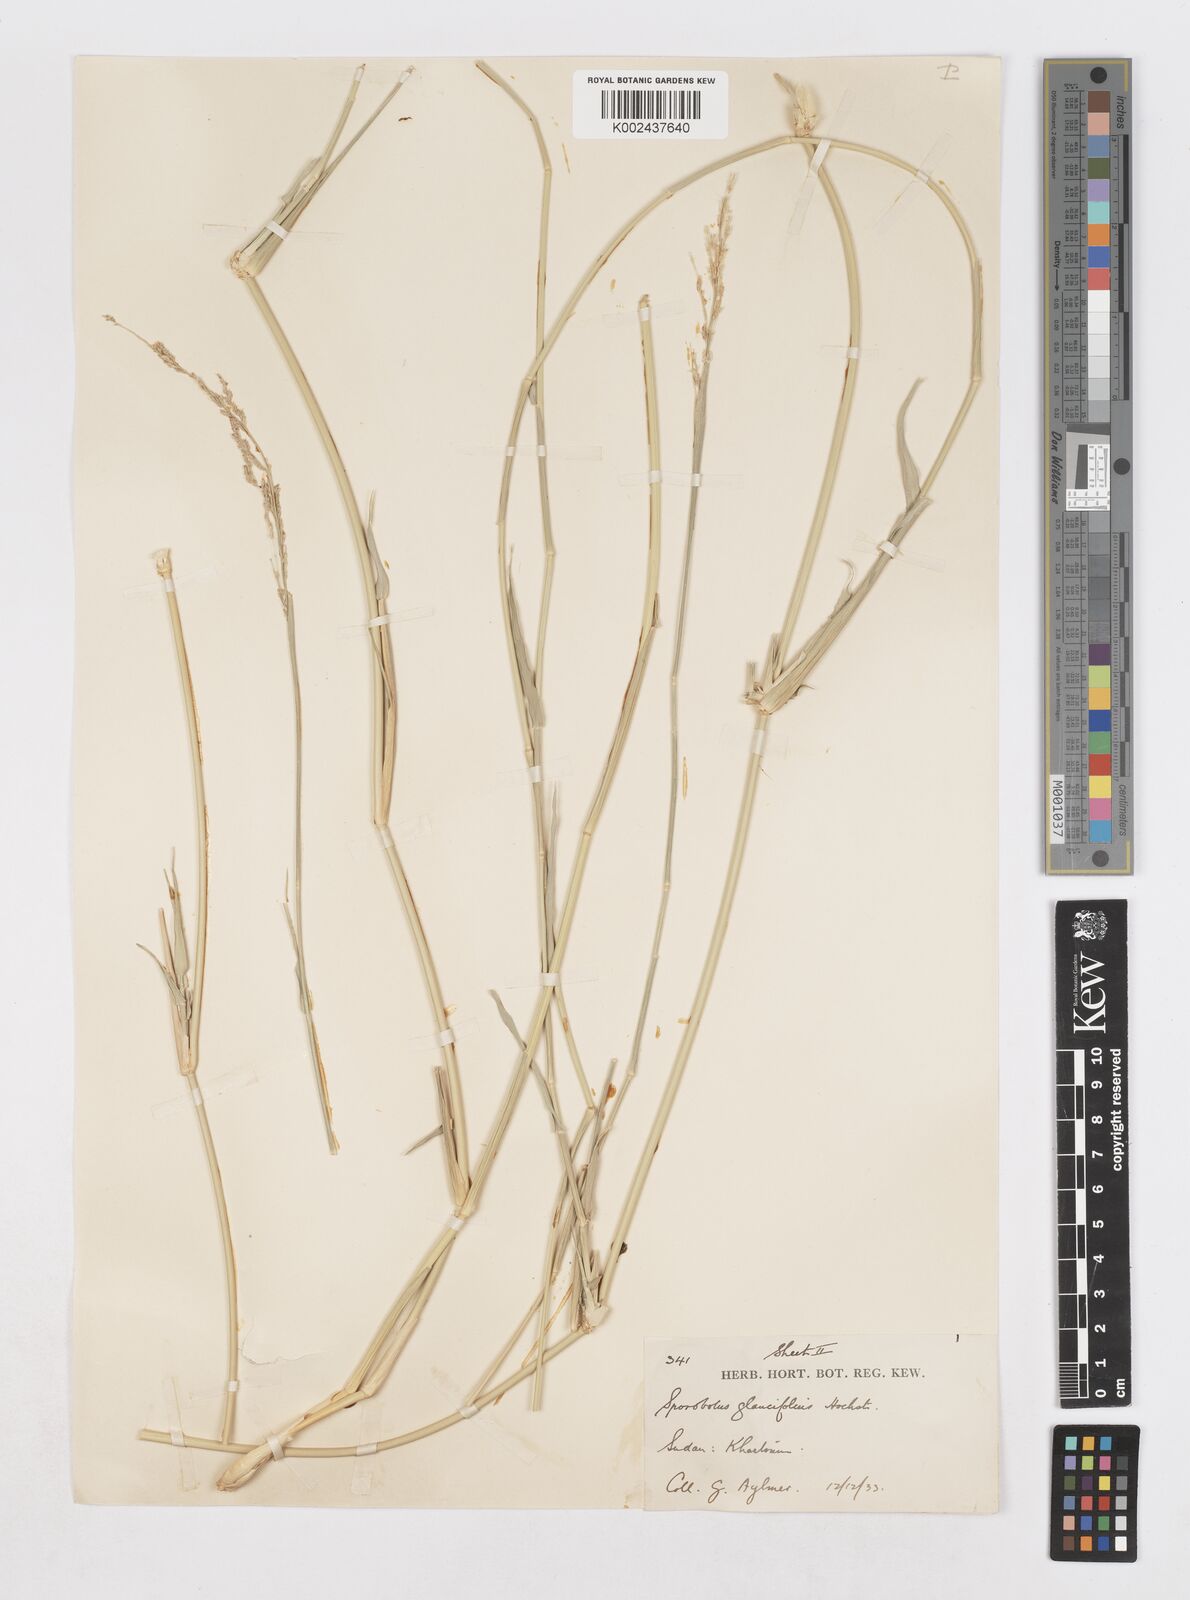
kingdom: Plantae
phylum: Tracheophyta
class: Liliopsida
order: Poales
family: Poaceae
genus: Sporobolus
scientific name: Sporobolus helvolus
